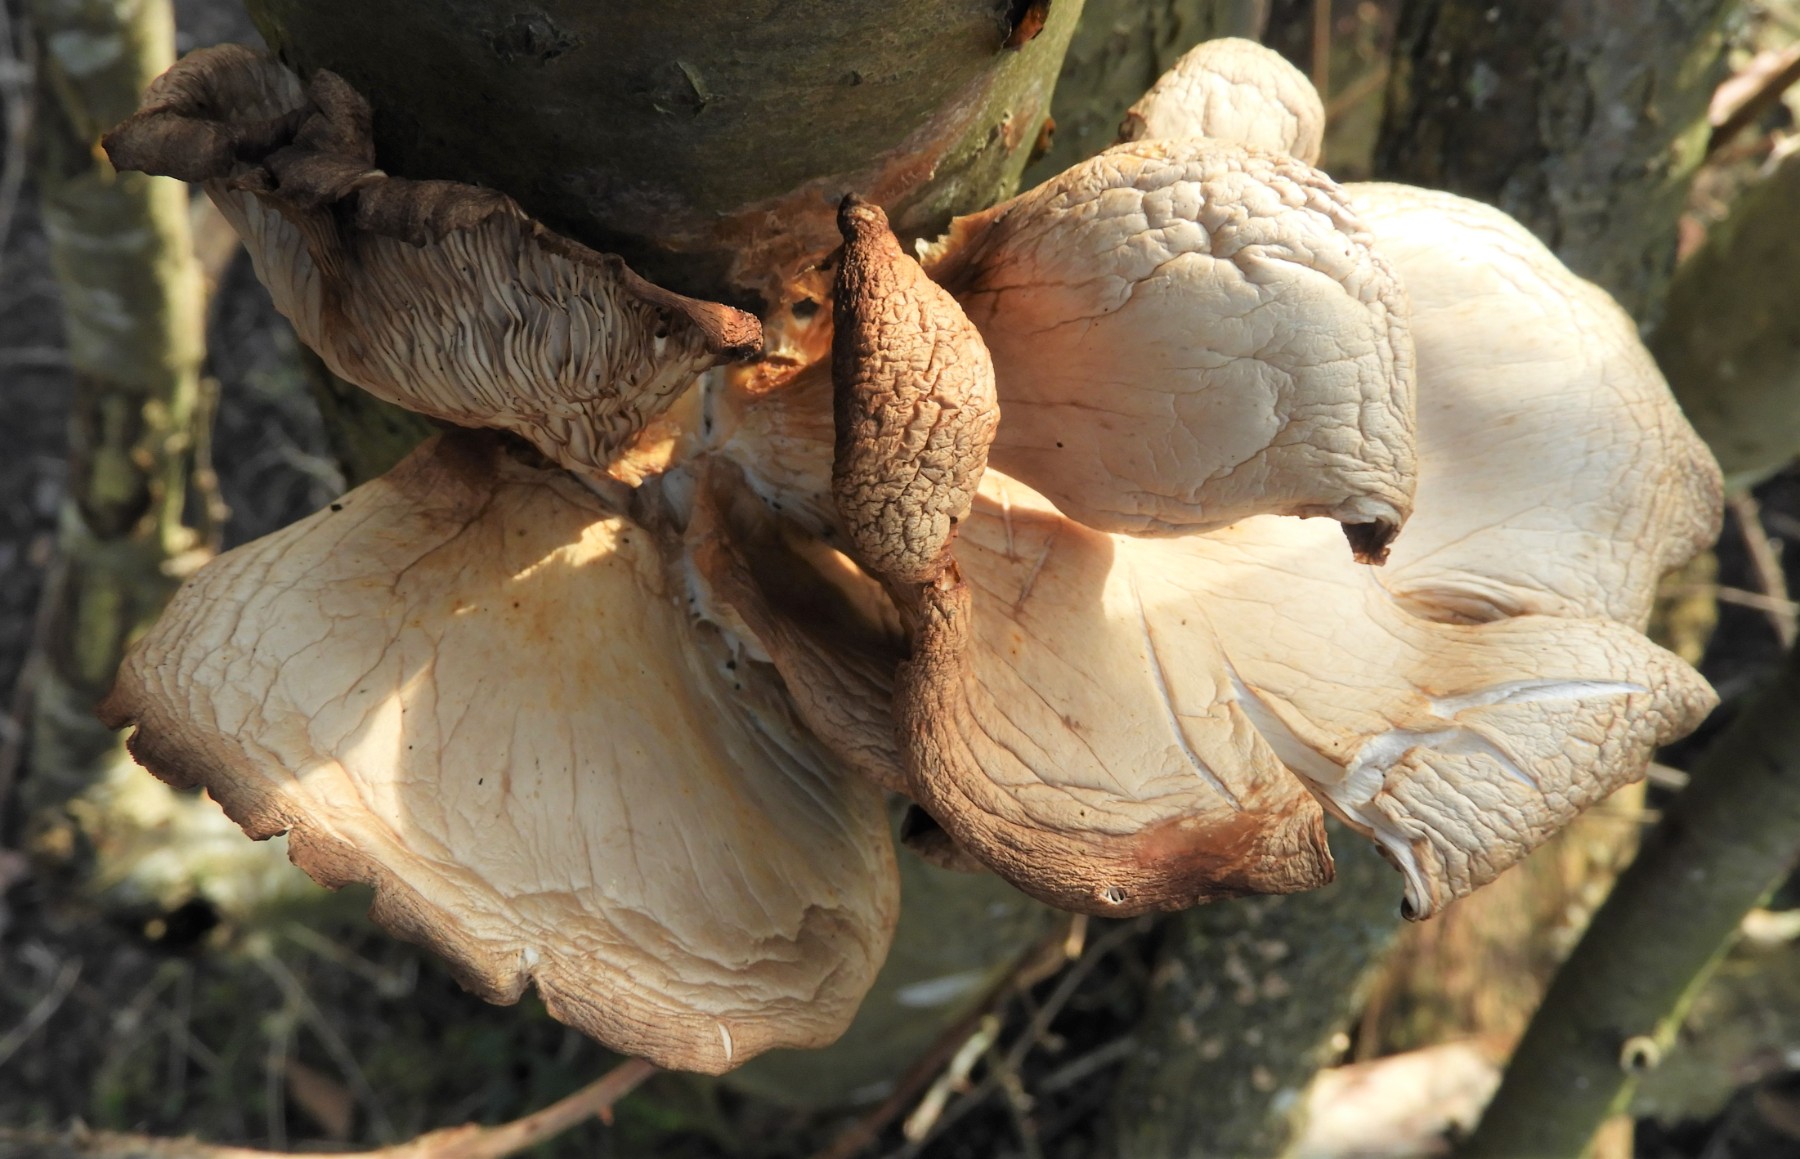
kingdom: Fungi
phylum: Basidiomycota
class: Agaricomycetes
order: Agaricales
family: Pleurotaceae
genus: Pleurotus
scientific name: Pleurotus ostreatus
